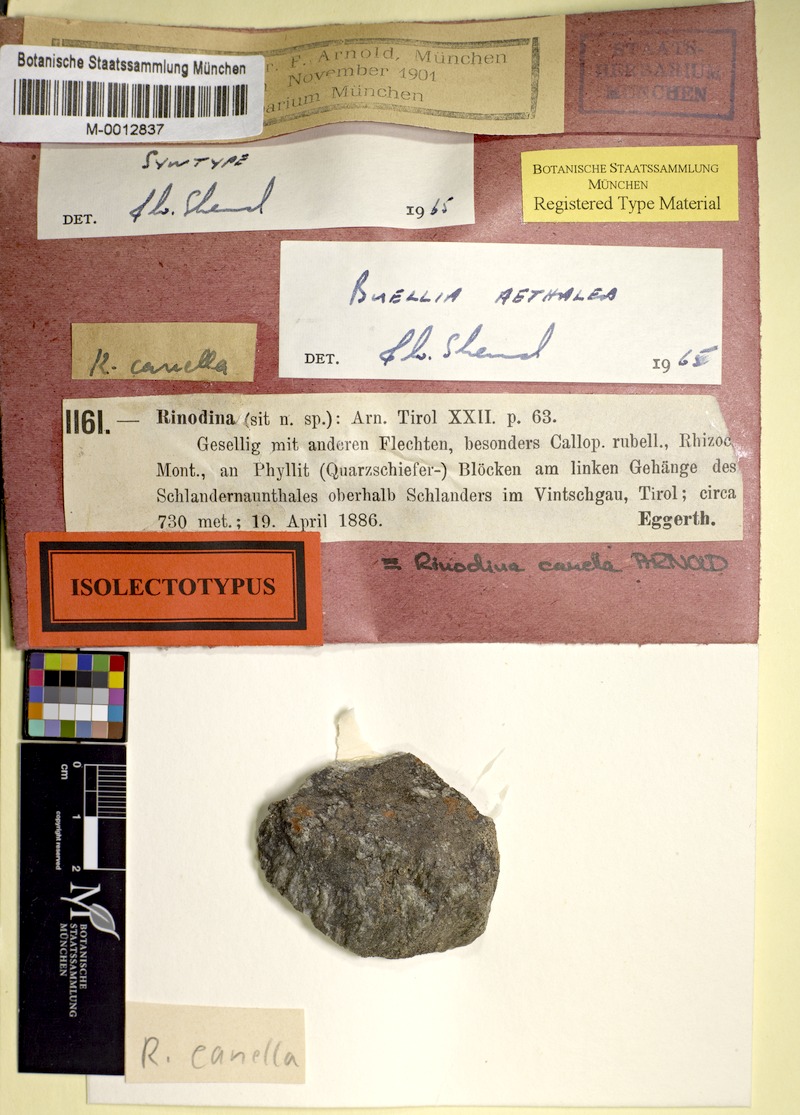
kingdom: Fungi
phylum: Ascomycota
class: Lecanoromycetes
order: Caliciales
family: Caliciaceae
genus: Buellia
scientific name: Buellia aethalea
